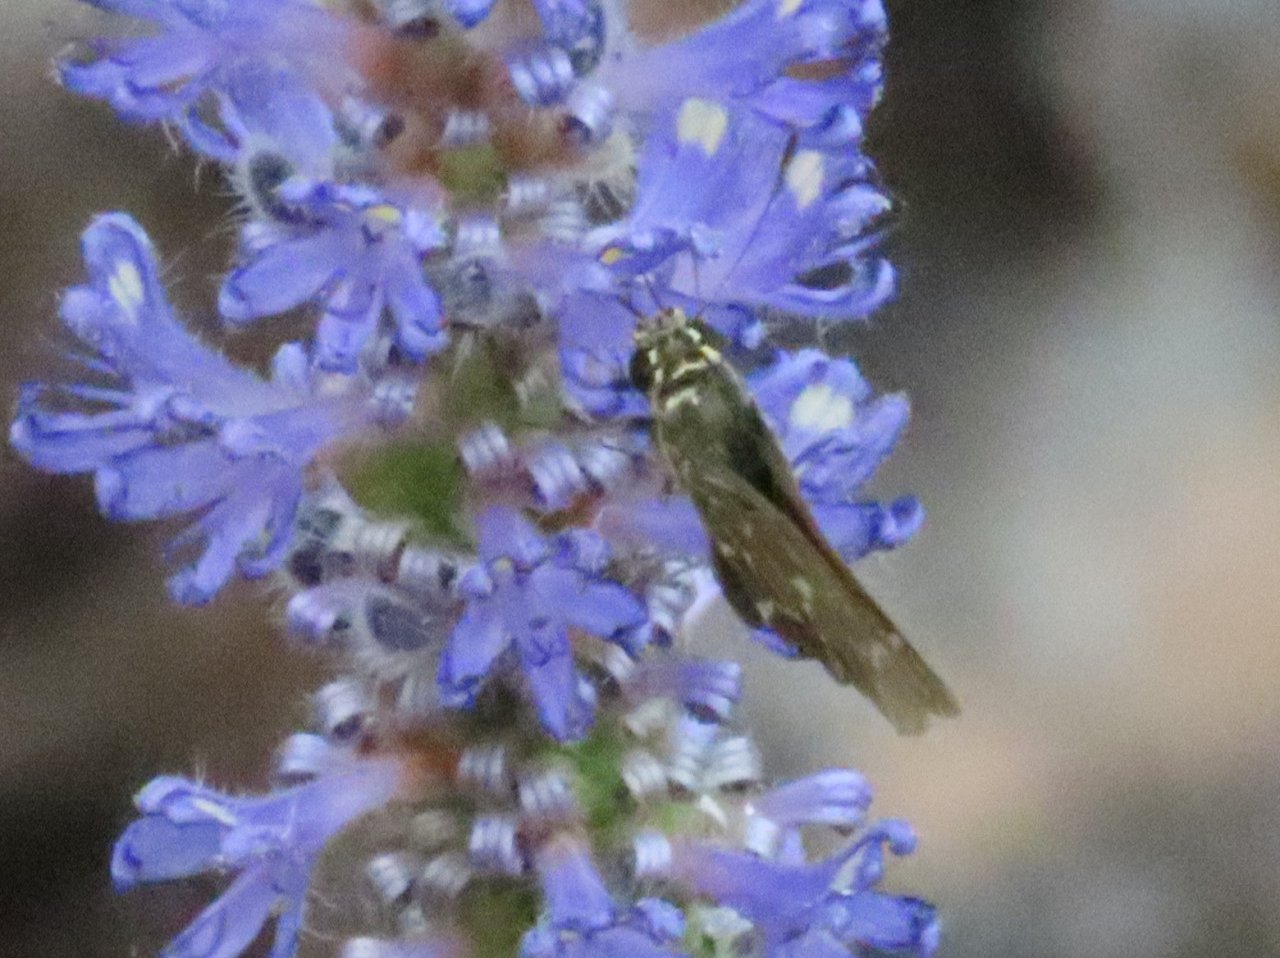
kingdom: Animalia
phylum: Arthropoda
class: Insecta
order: Lepidoptera
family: Hesperiidae
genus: Mastor
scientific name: Mastor aesculapius
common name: Lace-winged Roadside-Skipper
